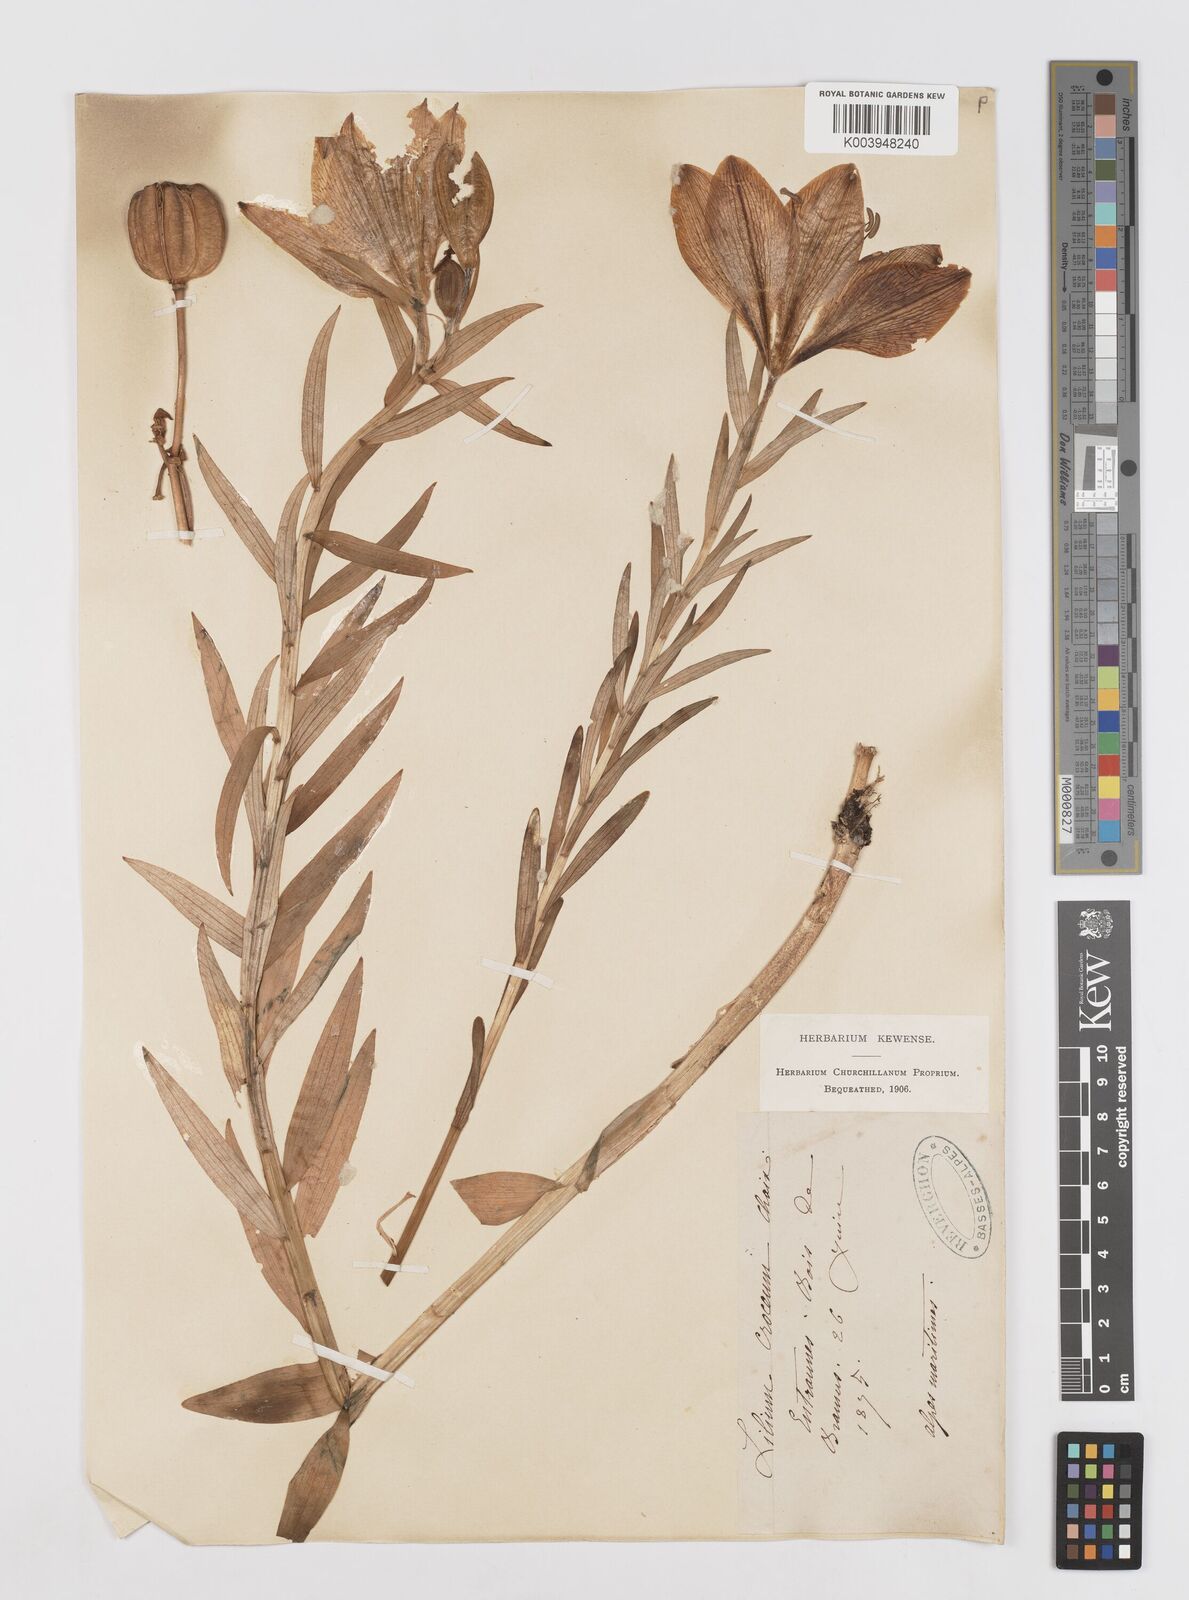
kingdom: Plantae
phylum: Tracheophyta
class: Liliopsida
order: Liliales
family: Liliaceae
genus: Lilium
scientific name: Lilium bulbiferum
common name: Orange lily
